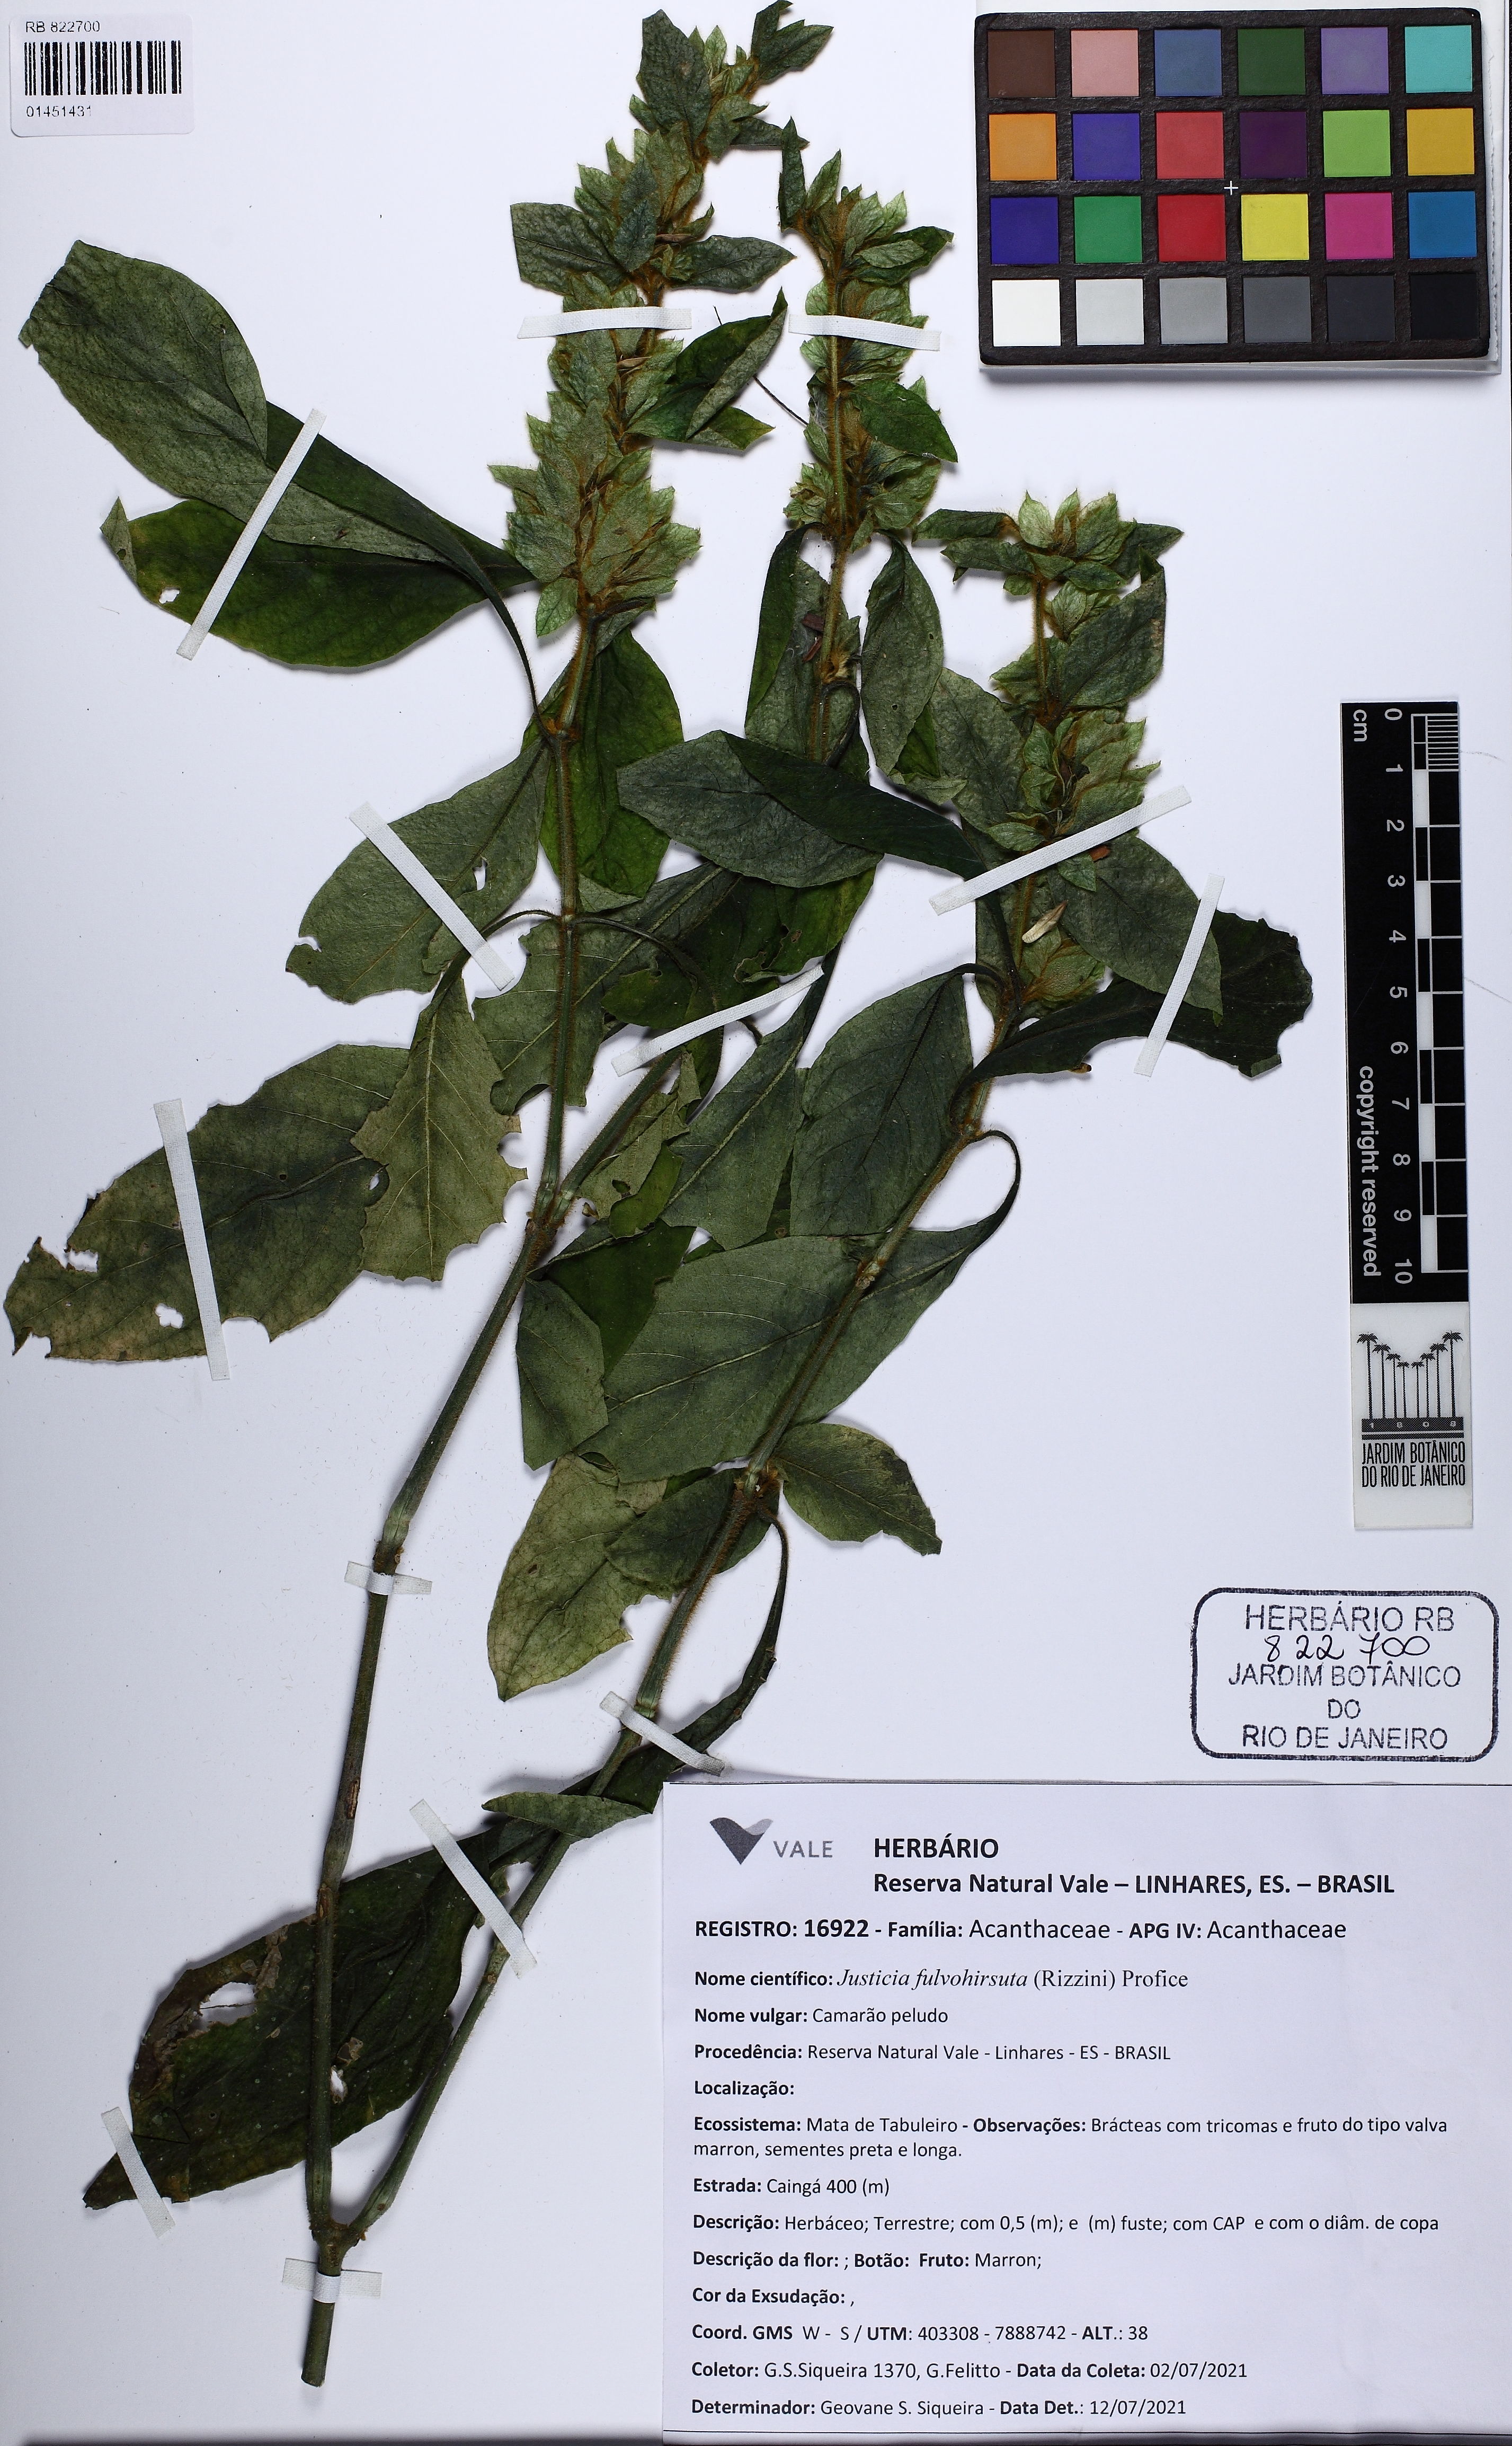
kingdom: Plantae
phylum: Tracheophyta
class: Magnoliopsida
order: Lamiales
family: Acanthaceae
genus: Justicia
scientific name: Justicia fulvohirsuta
